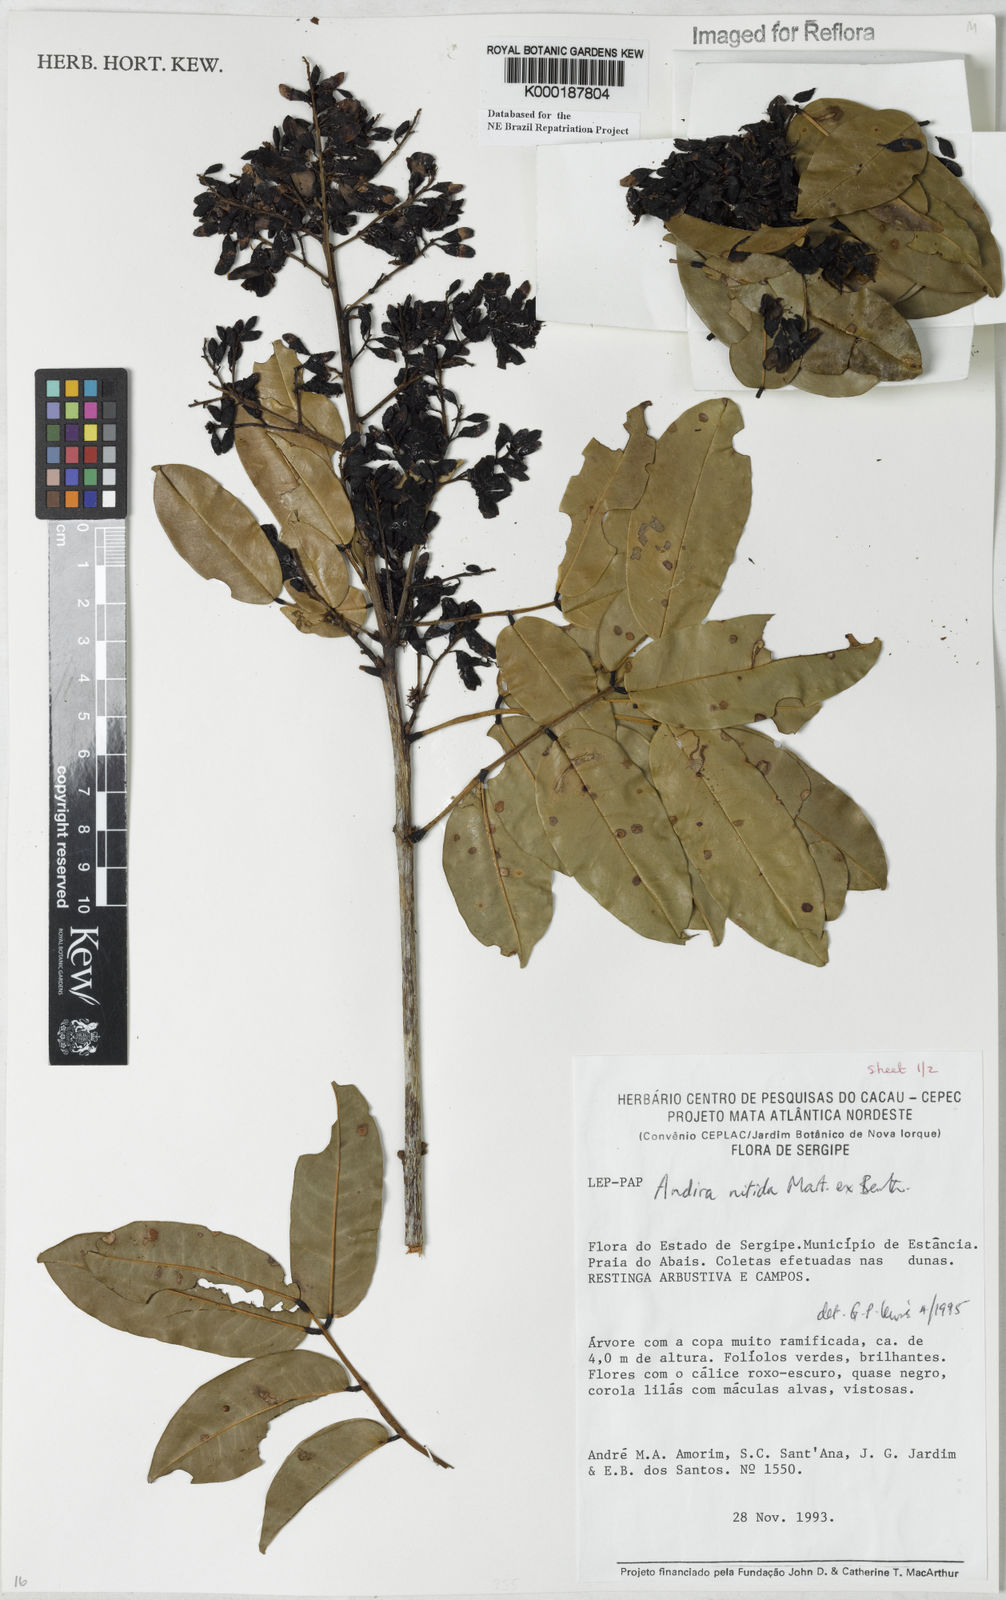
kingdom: Plantae
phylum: Tracheophyta
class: Magnoliopsida
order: Fabales
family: Fabaceae
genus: Andira
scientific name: Andira nitida
